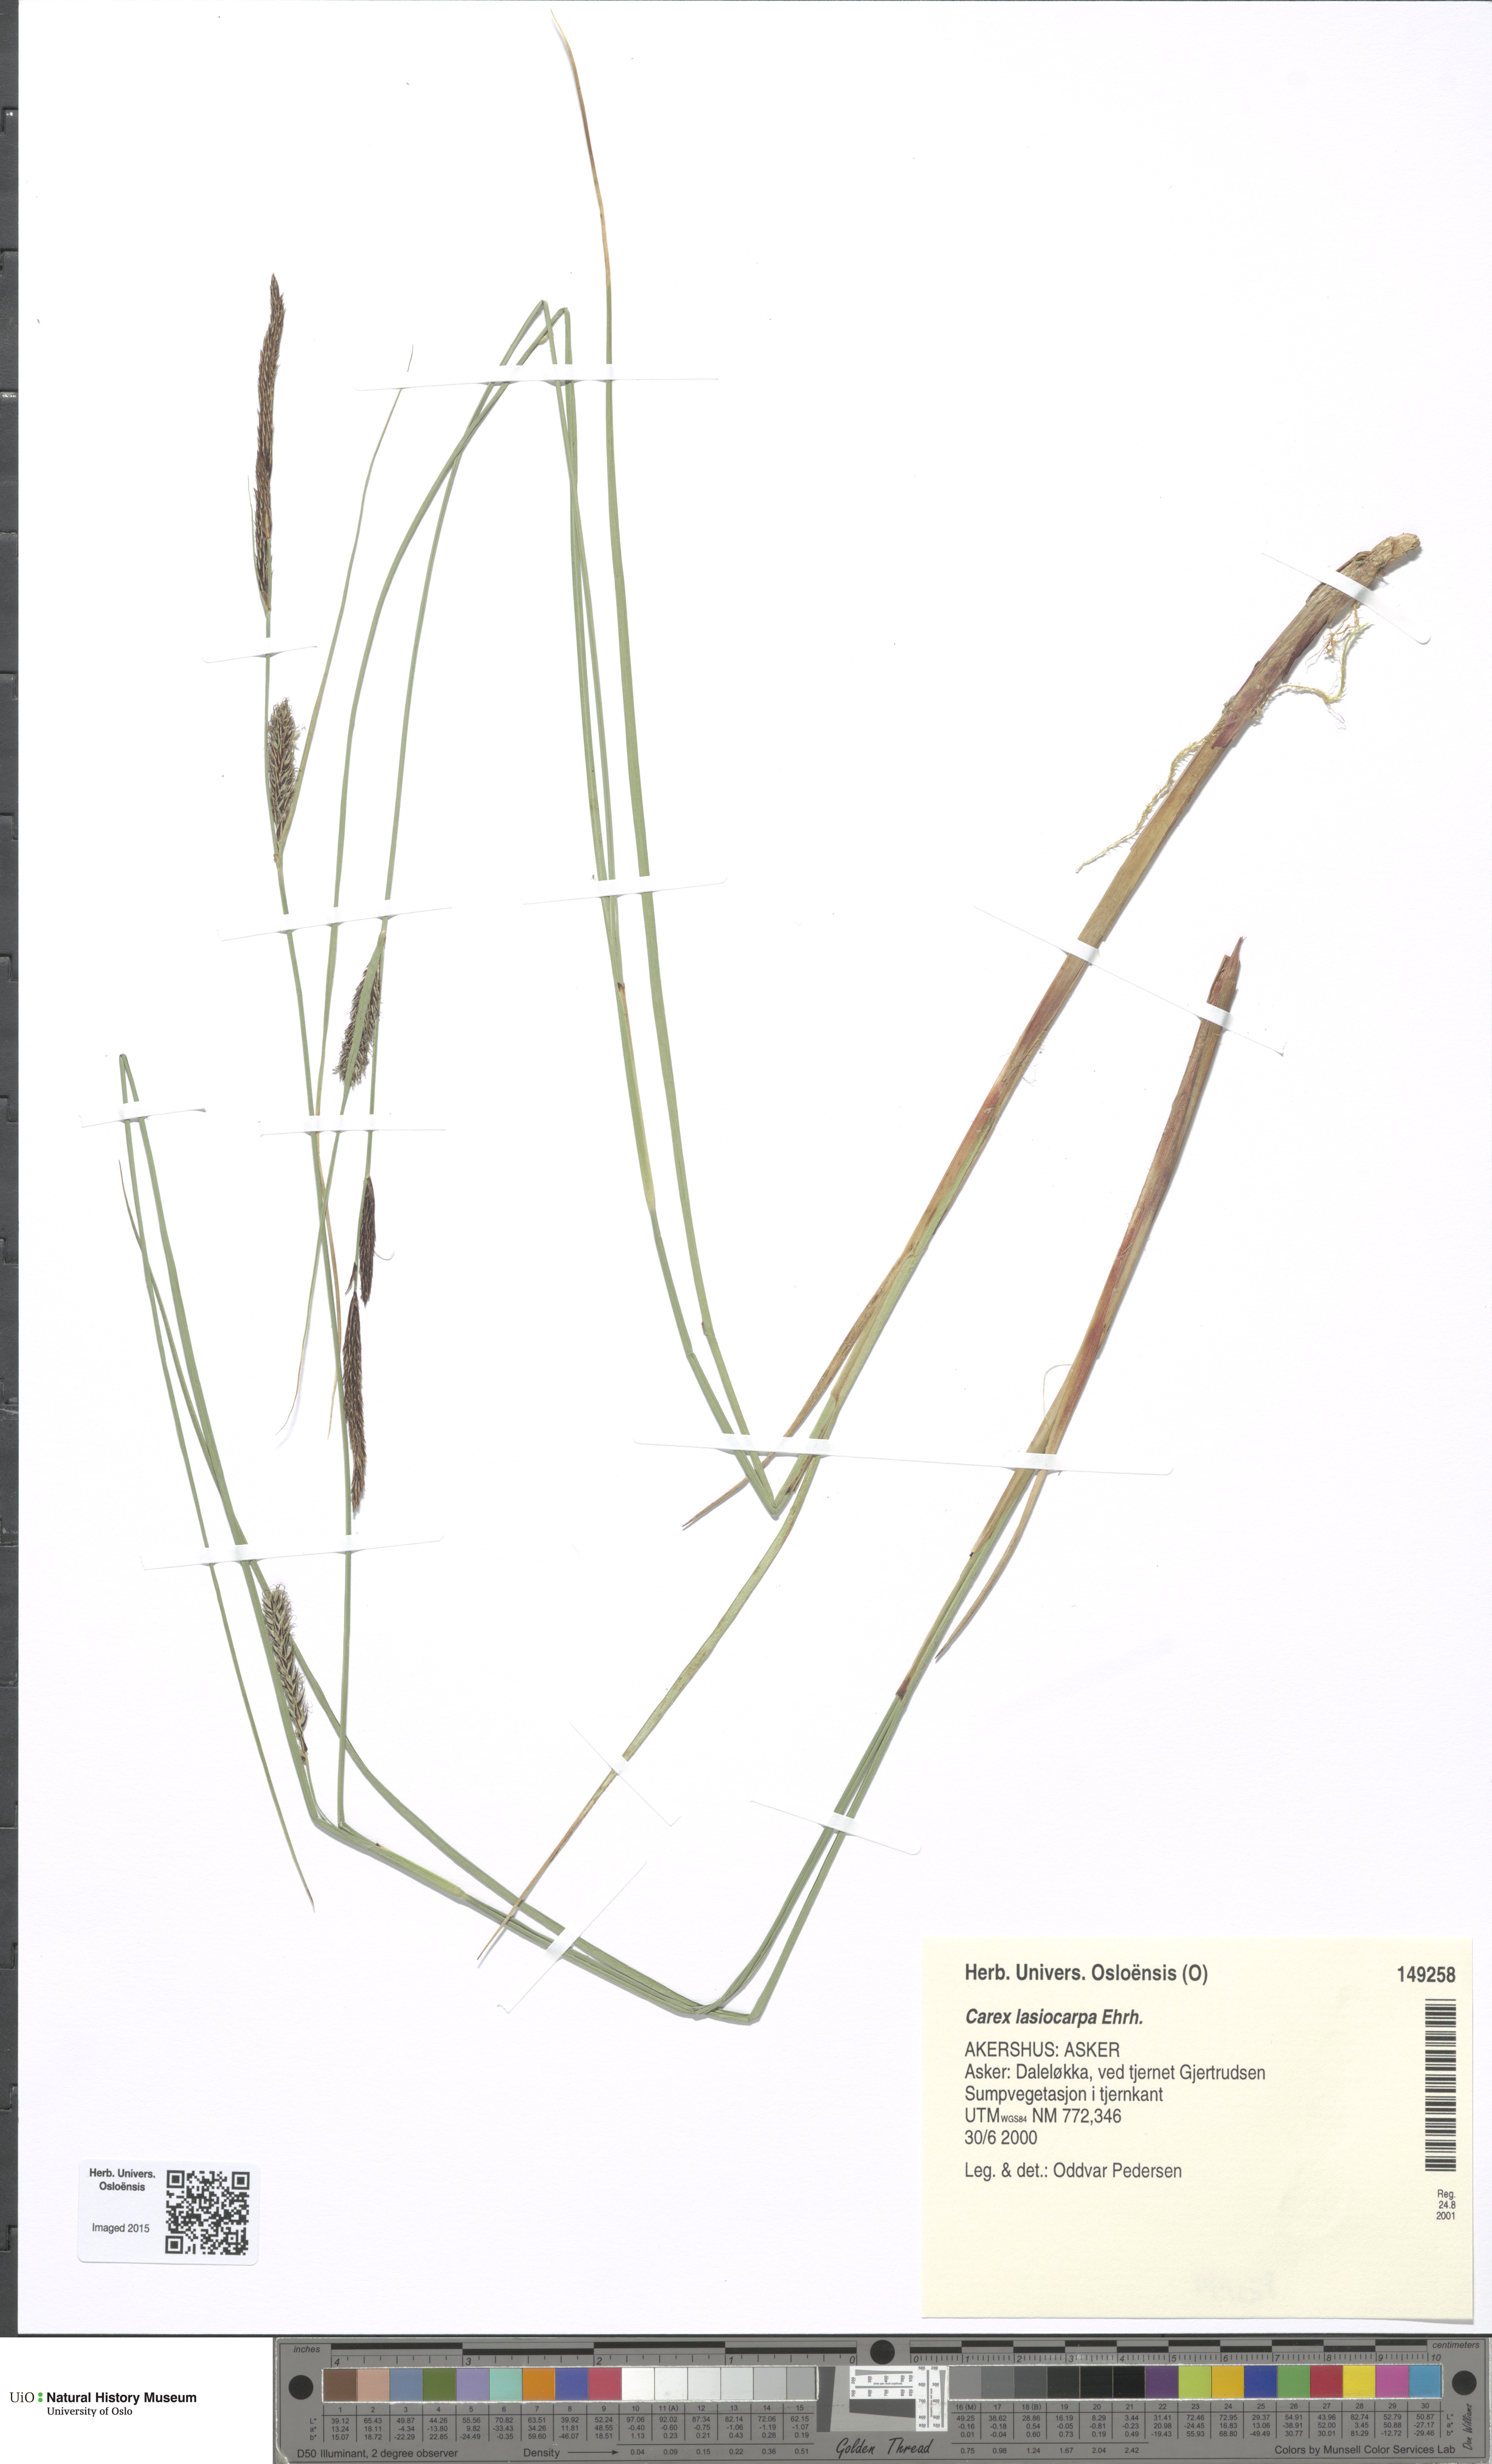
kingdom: Plantae
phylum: Tracheophyta
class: Liliopsida
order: Poales
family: Cyperaceae
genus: Carex
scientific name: Carex lasiocarpa
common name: Slender sedge
